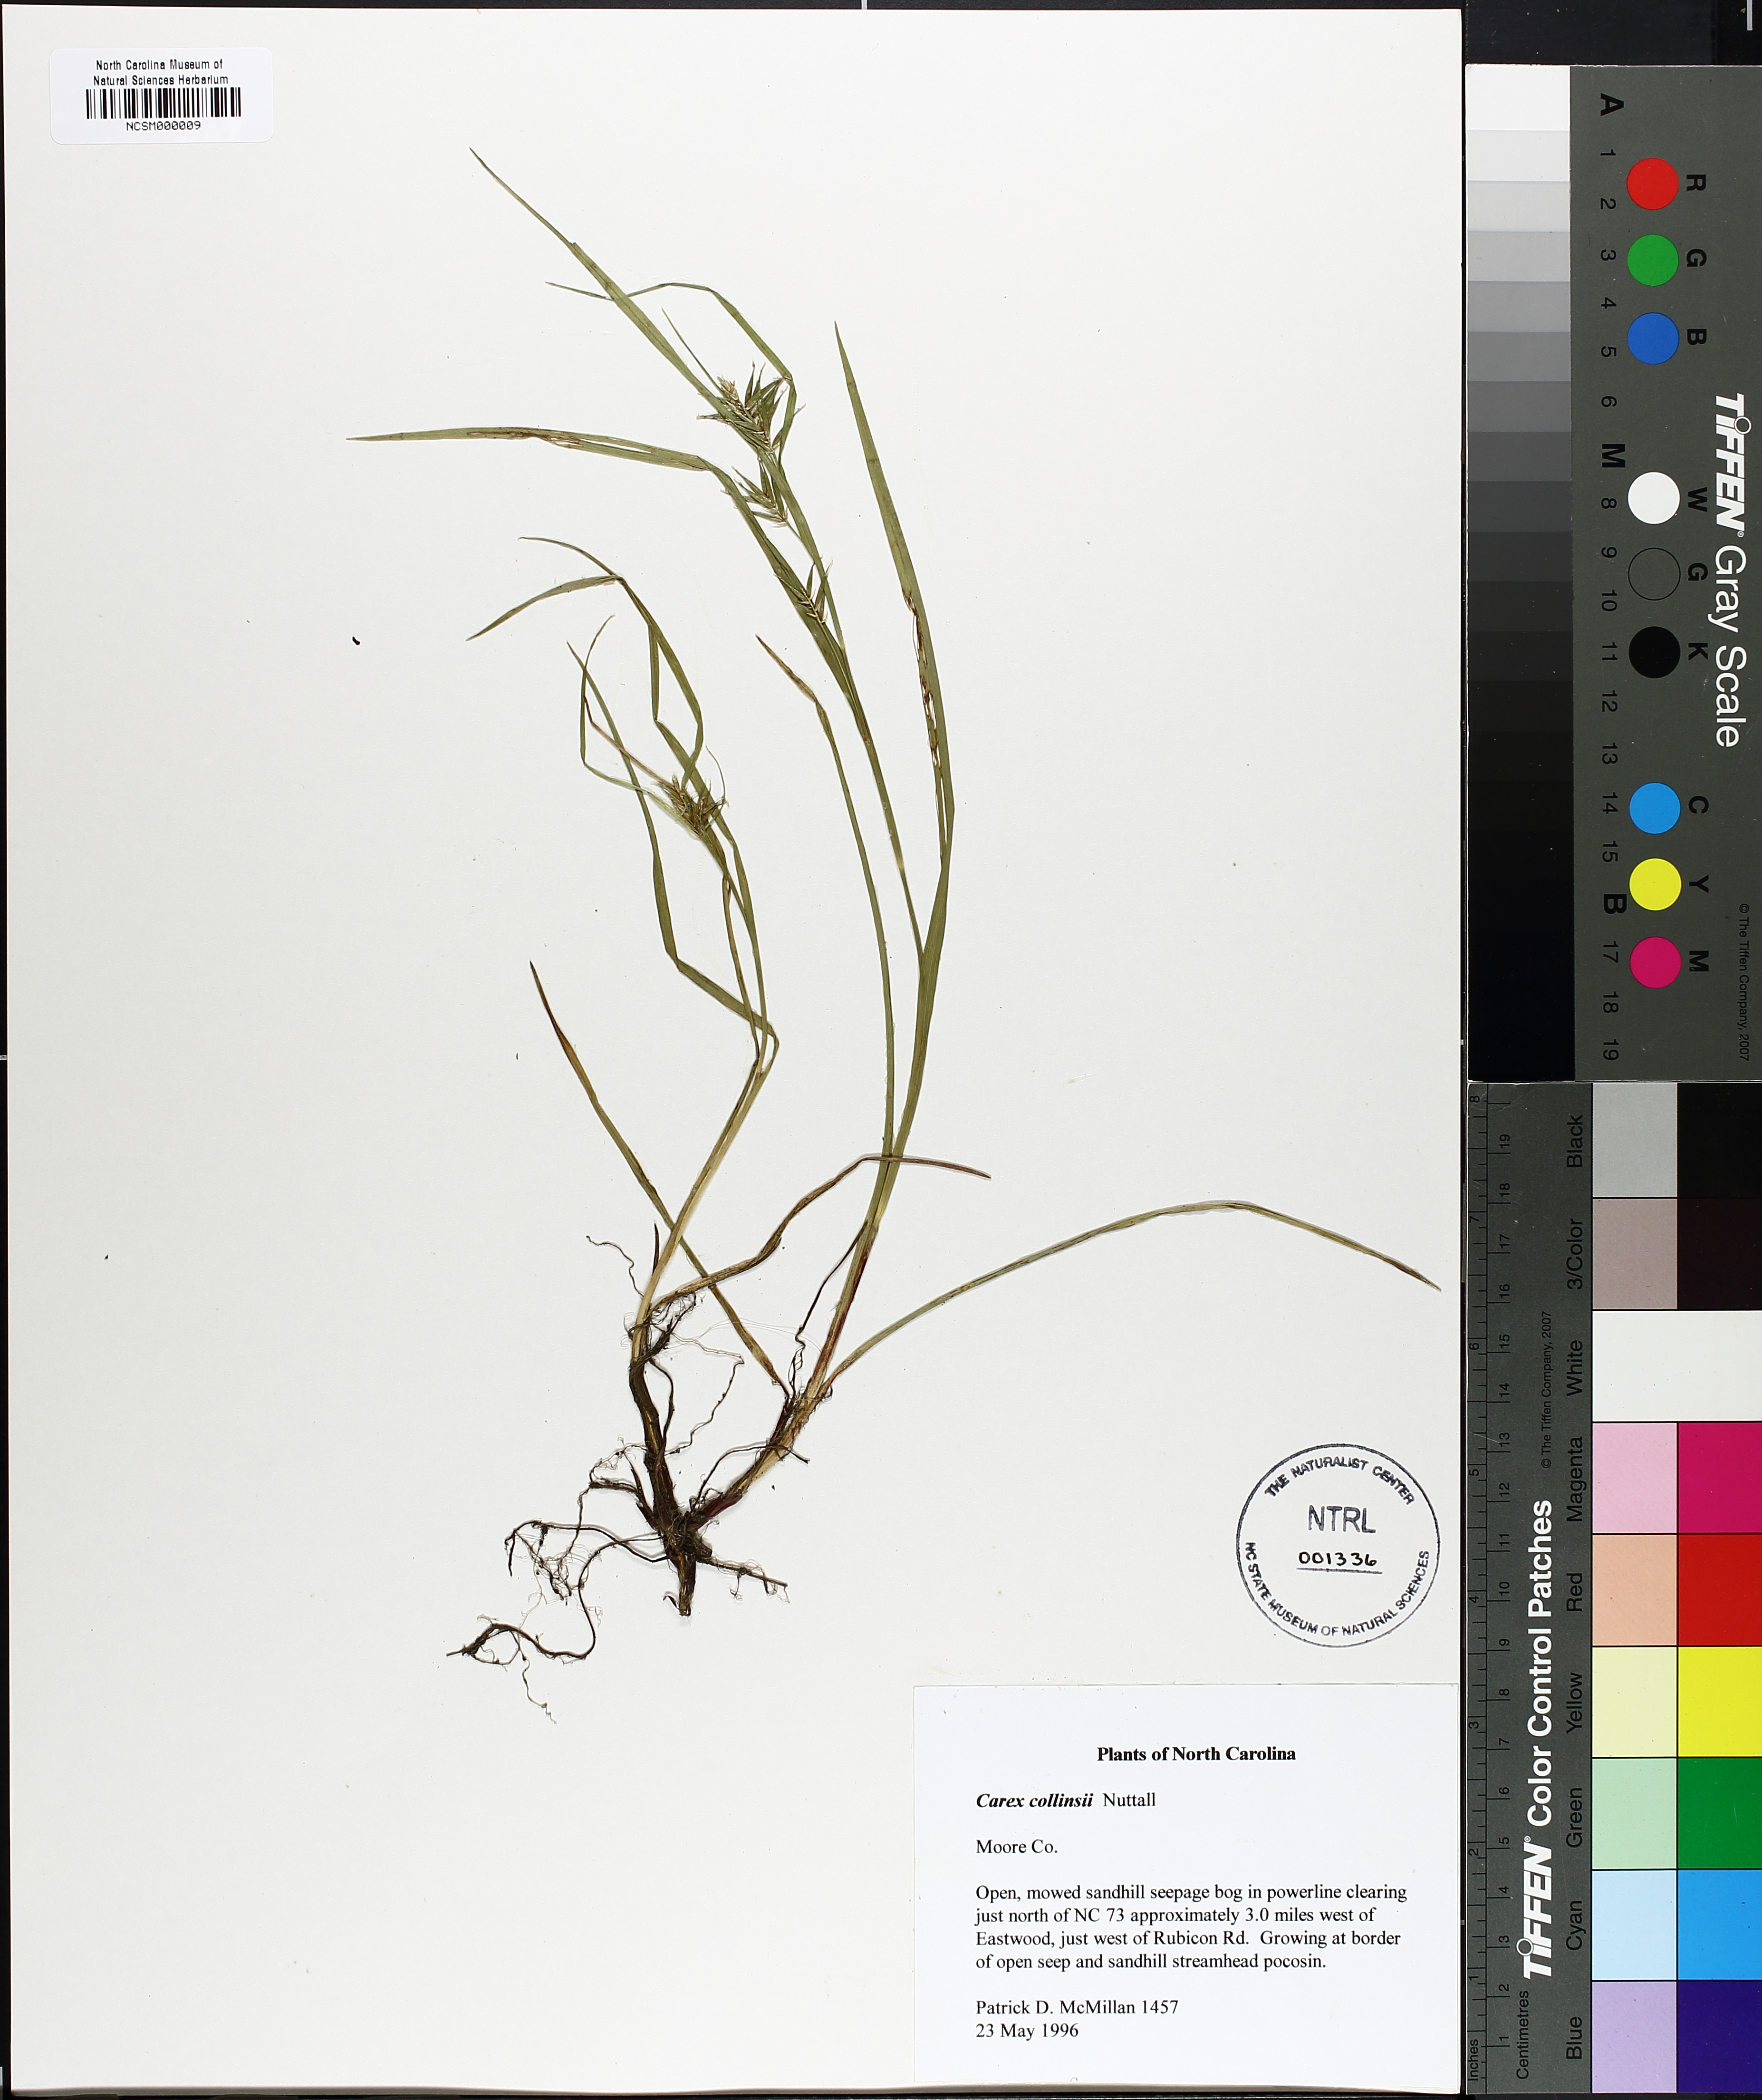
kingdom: Plantae
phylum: Tracheophyta
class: Liliopsida
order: Poales
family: Cyperaceae
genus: Carex
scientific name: Carex collinsii
